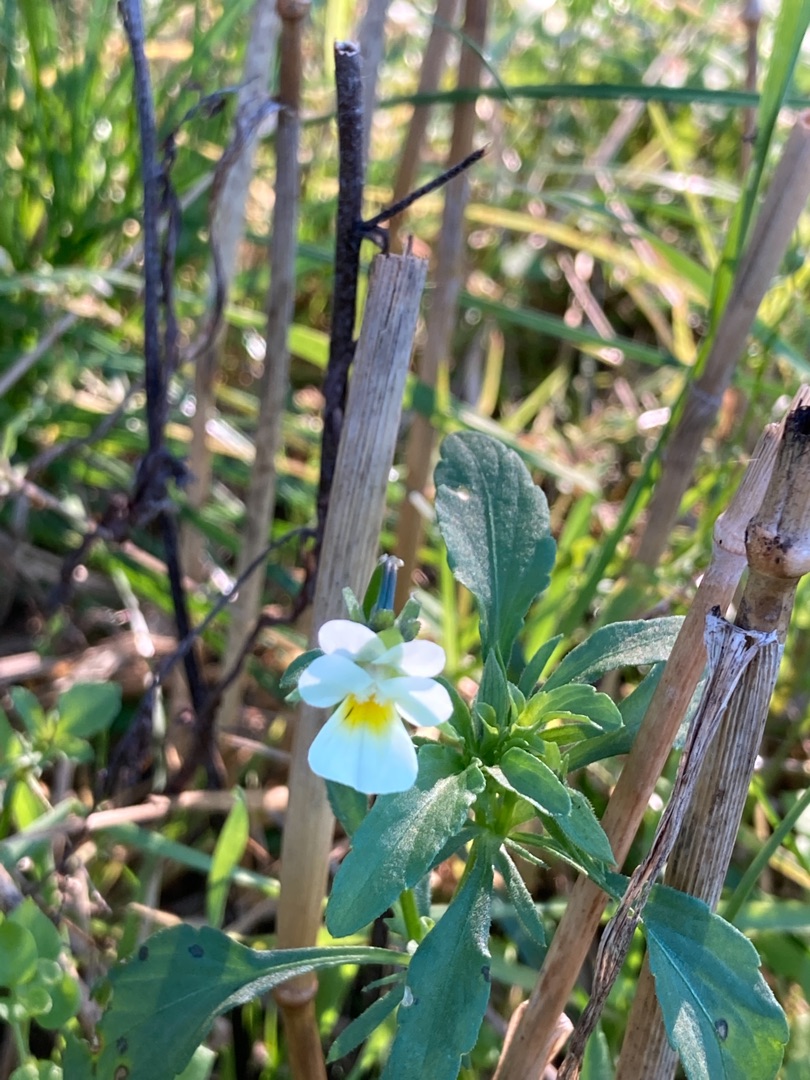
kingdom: Plantae
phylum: Tracheophyta
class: Magnoliopsida
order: Malpighiales
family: Violaceae
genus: Viola
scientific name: Viola arvensis
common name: Ager-stedmoderblomst
